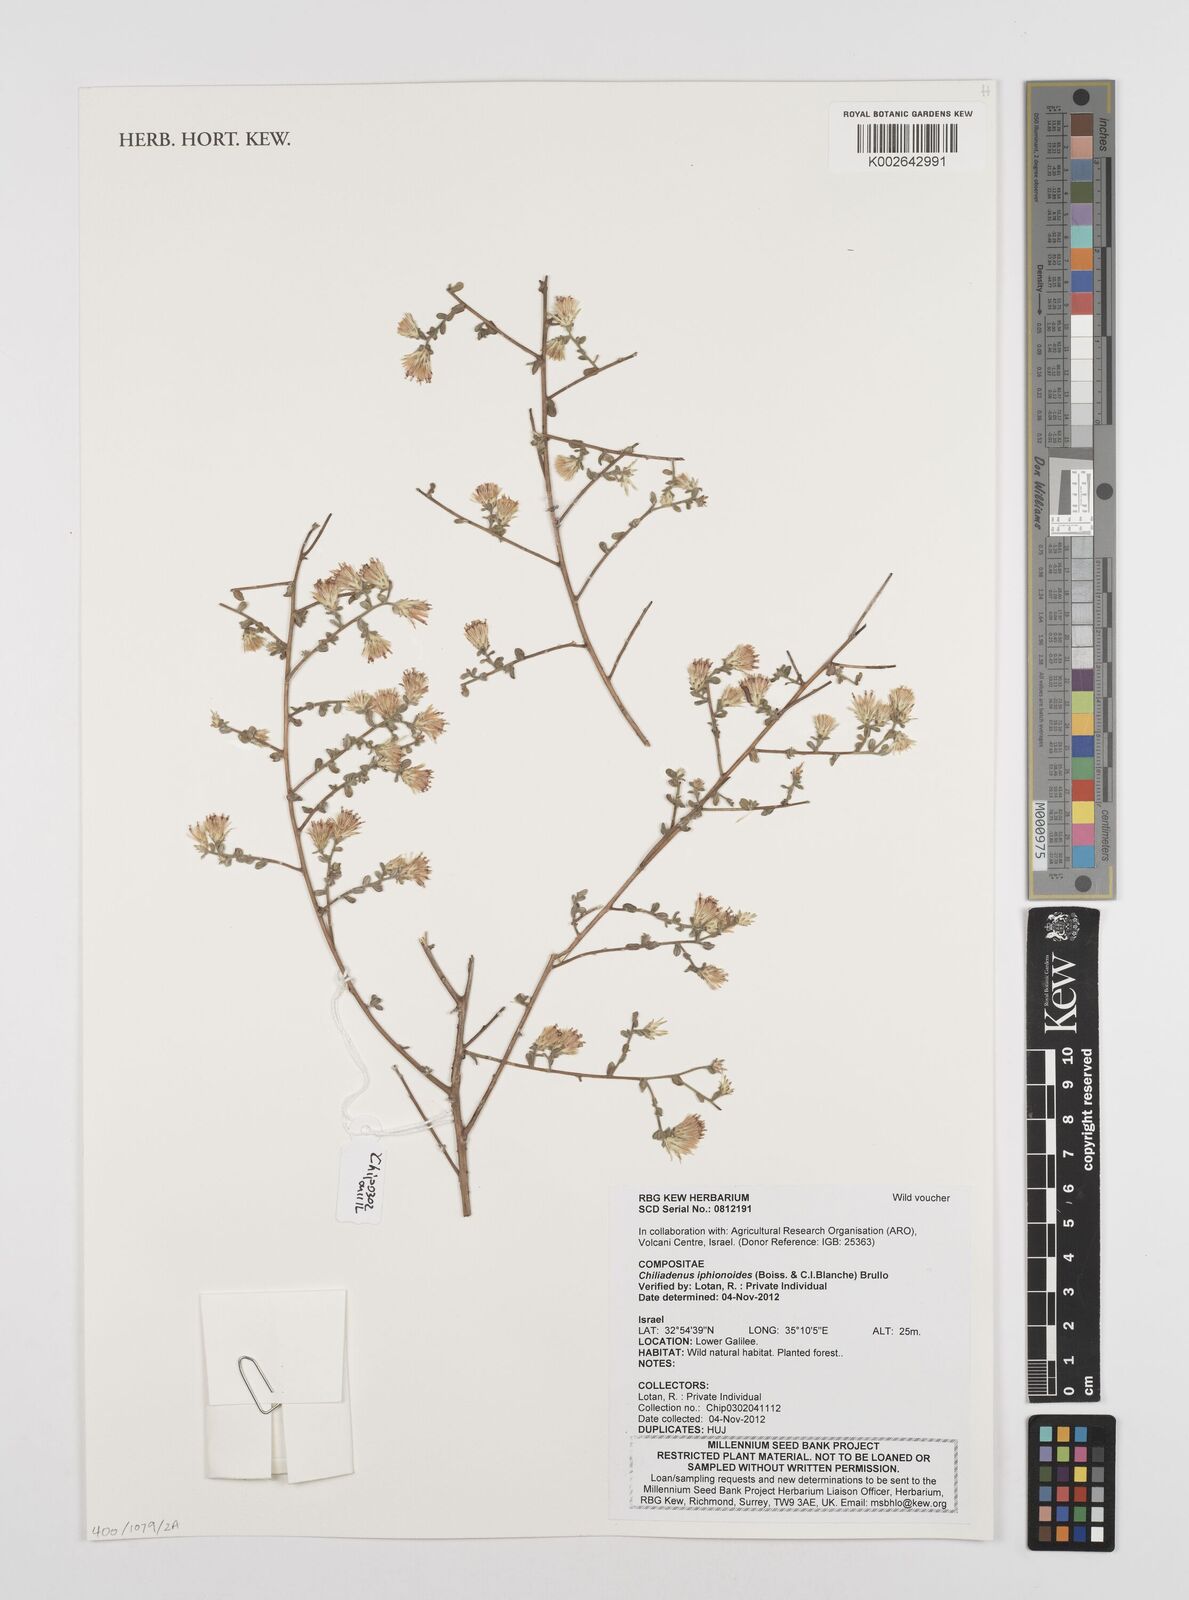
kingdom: Plantae
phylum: Tracheophyta
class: Magnoliopsida
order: Asterales
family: Asteraceae
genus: Chiliadenus
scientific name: Chiliadenus iphionoides
